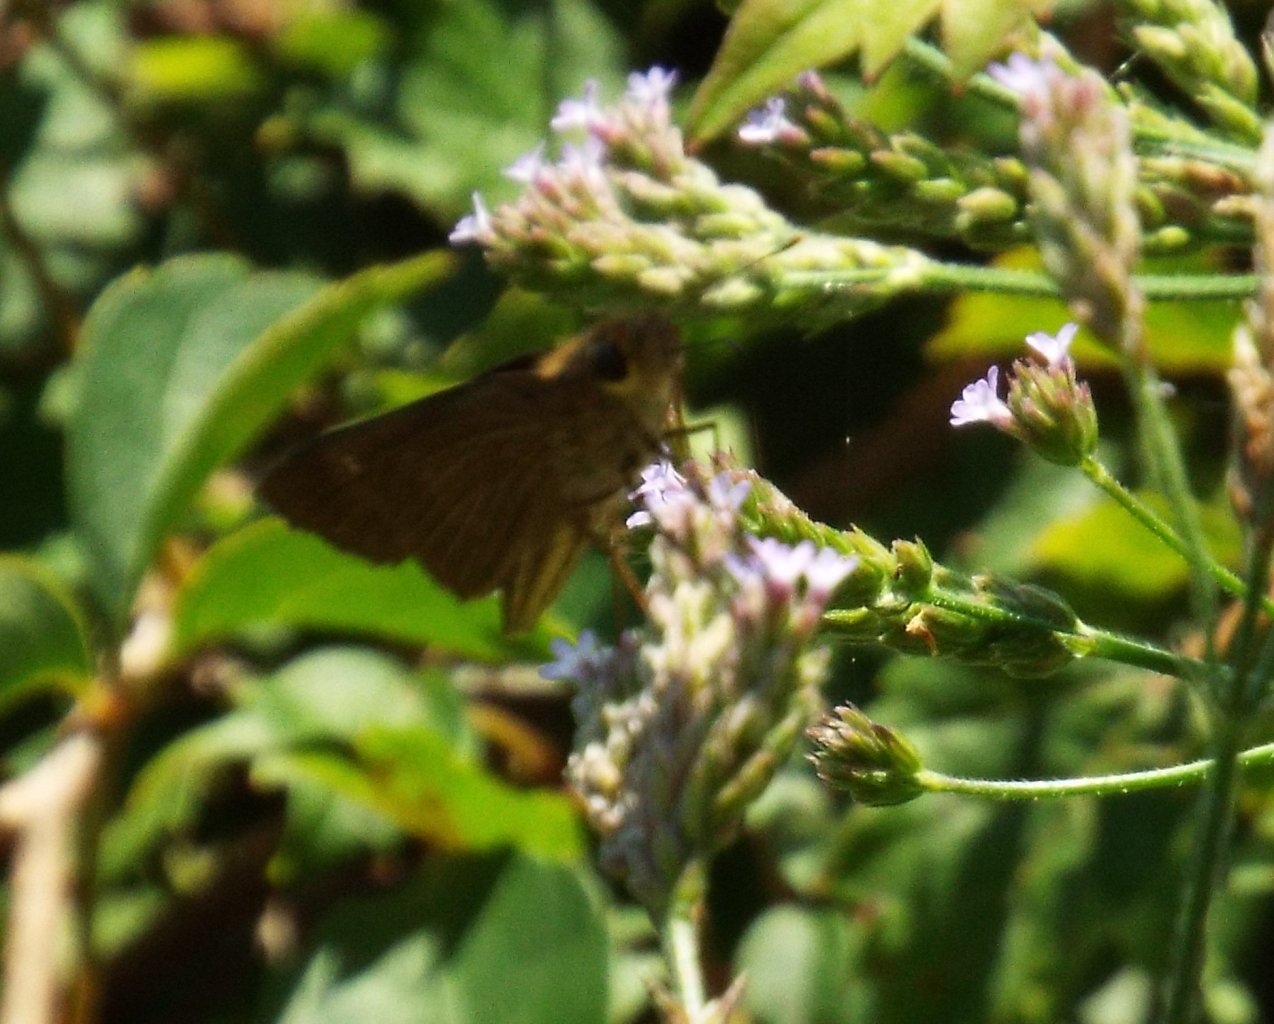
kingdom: Animalia
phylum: Arthropoda
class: Insecta
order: Lepidoptera
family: Hesperiidae
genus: Panoquina
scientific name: Panoquina ocola
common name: Ocola Skipper
